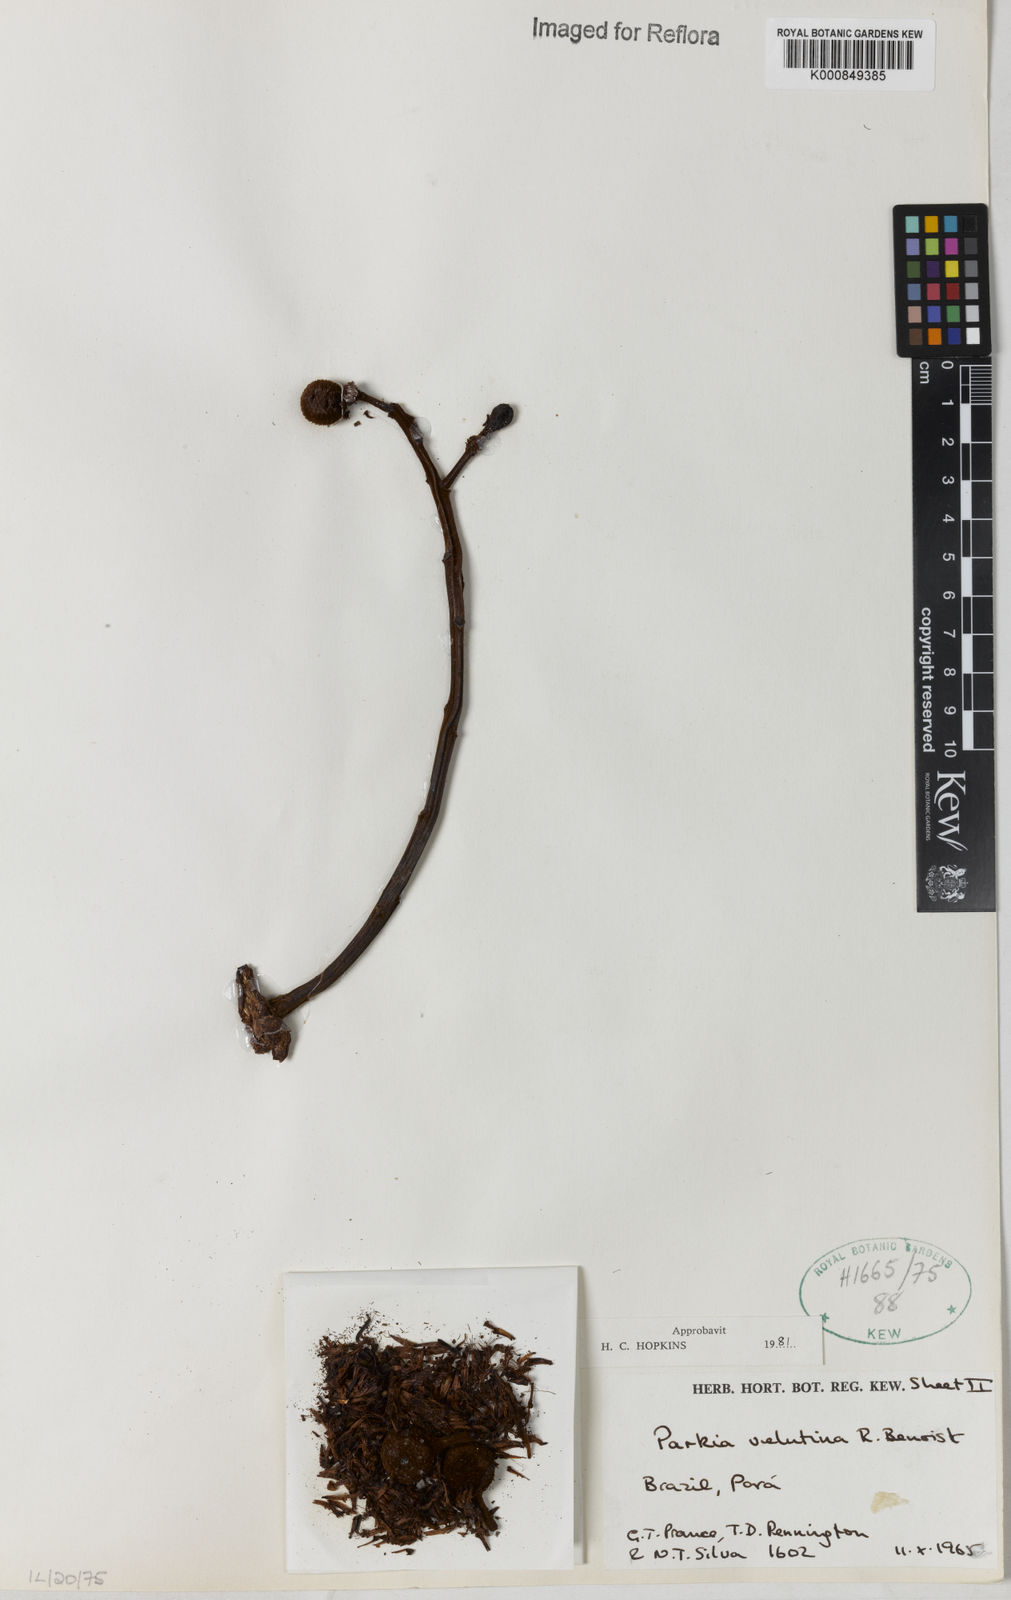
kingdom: Plantae
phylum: Tracheophyta
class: Magnoliopsida
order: Fabales
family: Fabaceae
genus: Parkia
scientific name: Parkia velutina
